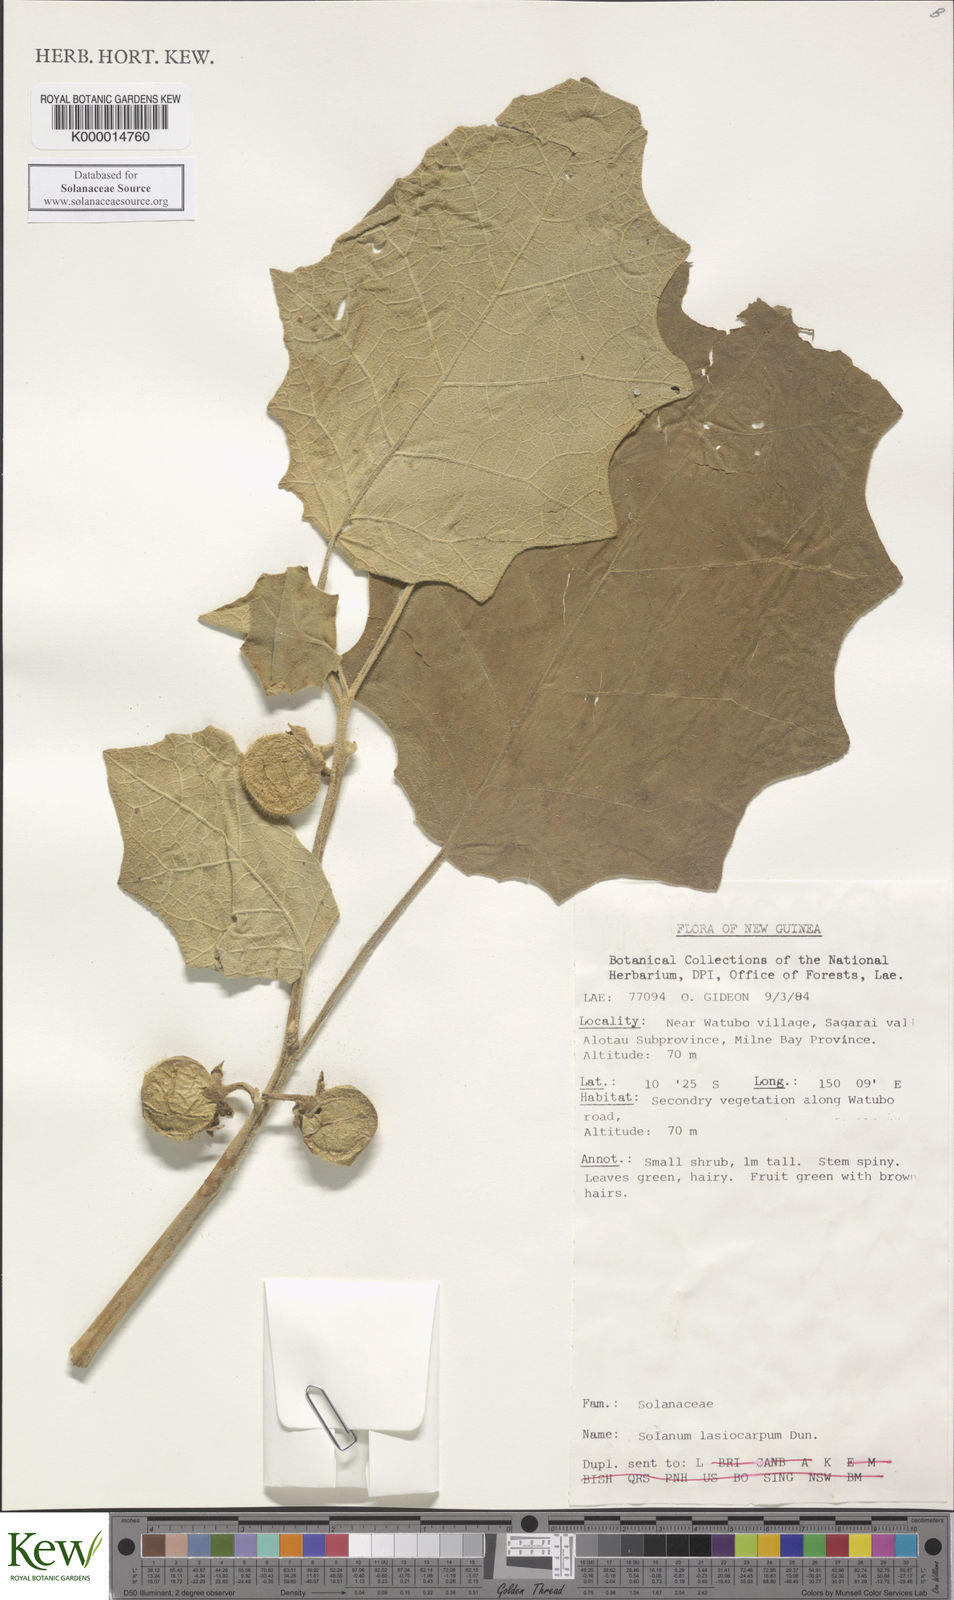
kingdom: Plantae
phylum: Tracheophyta
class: Magnoliopsida
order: Solanales
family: Solanaceae
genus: Solanum
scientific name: Solanum lasiocarpum
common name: Indian nightshade
